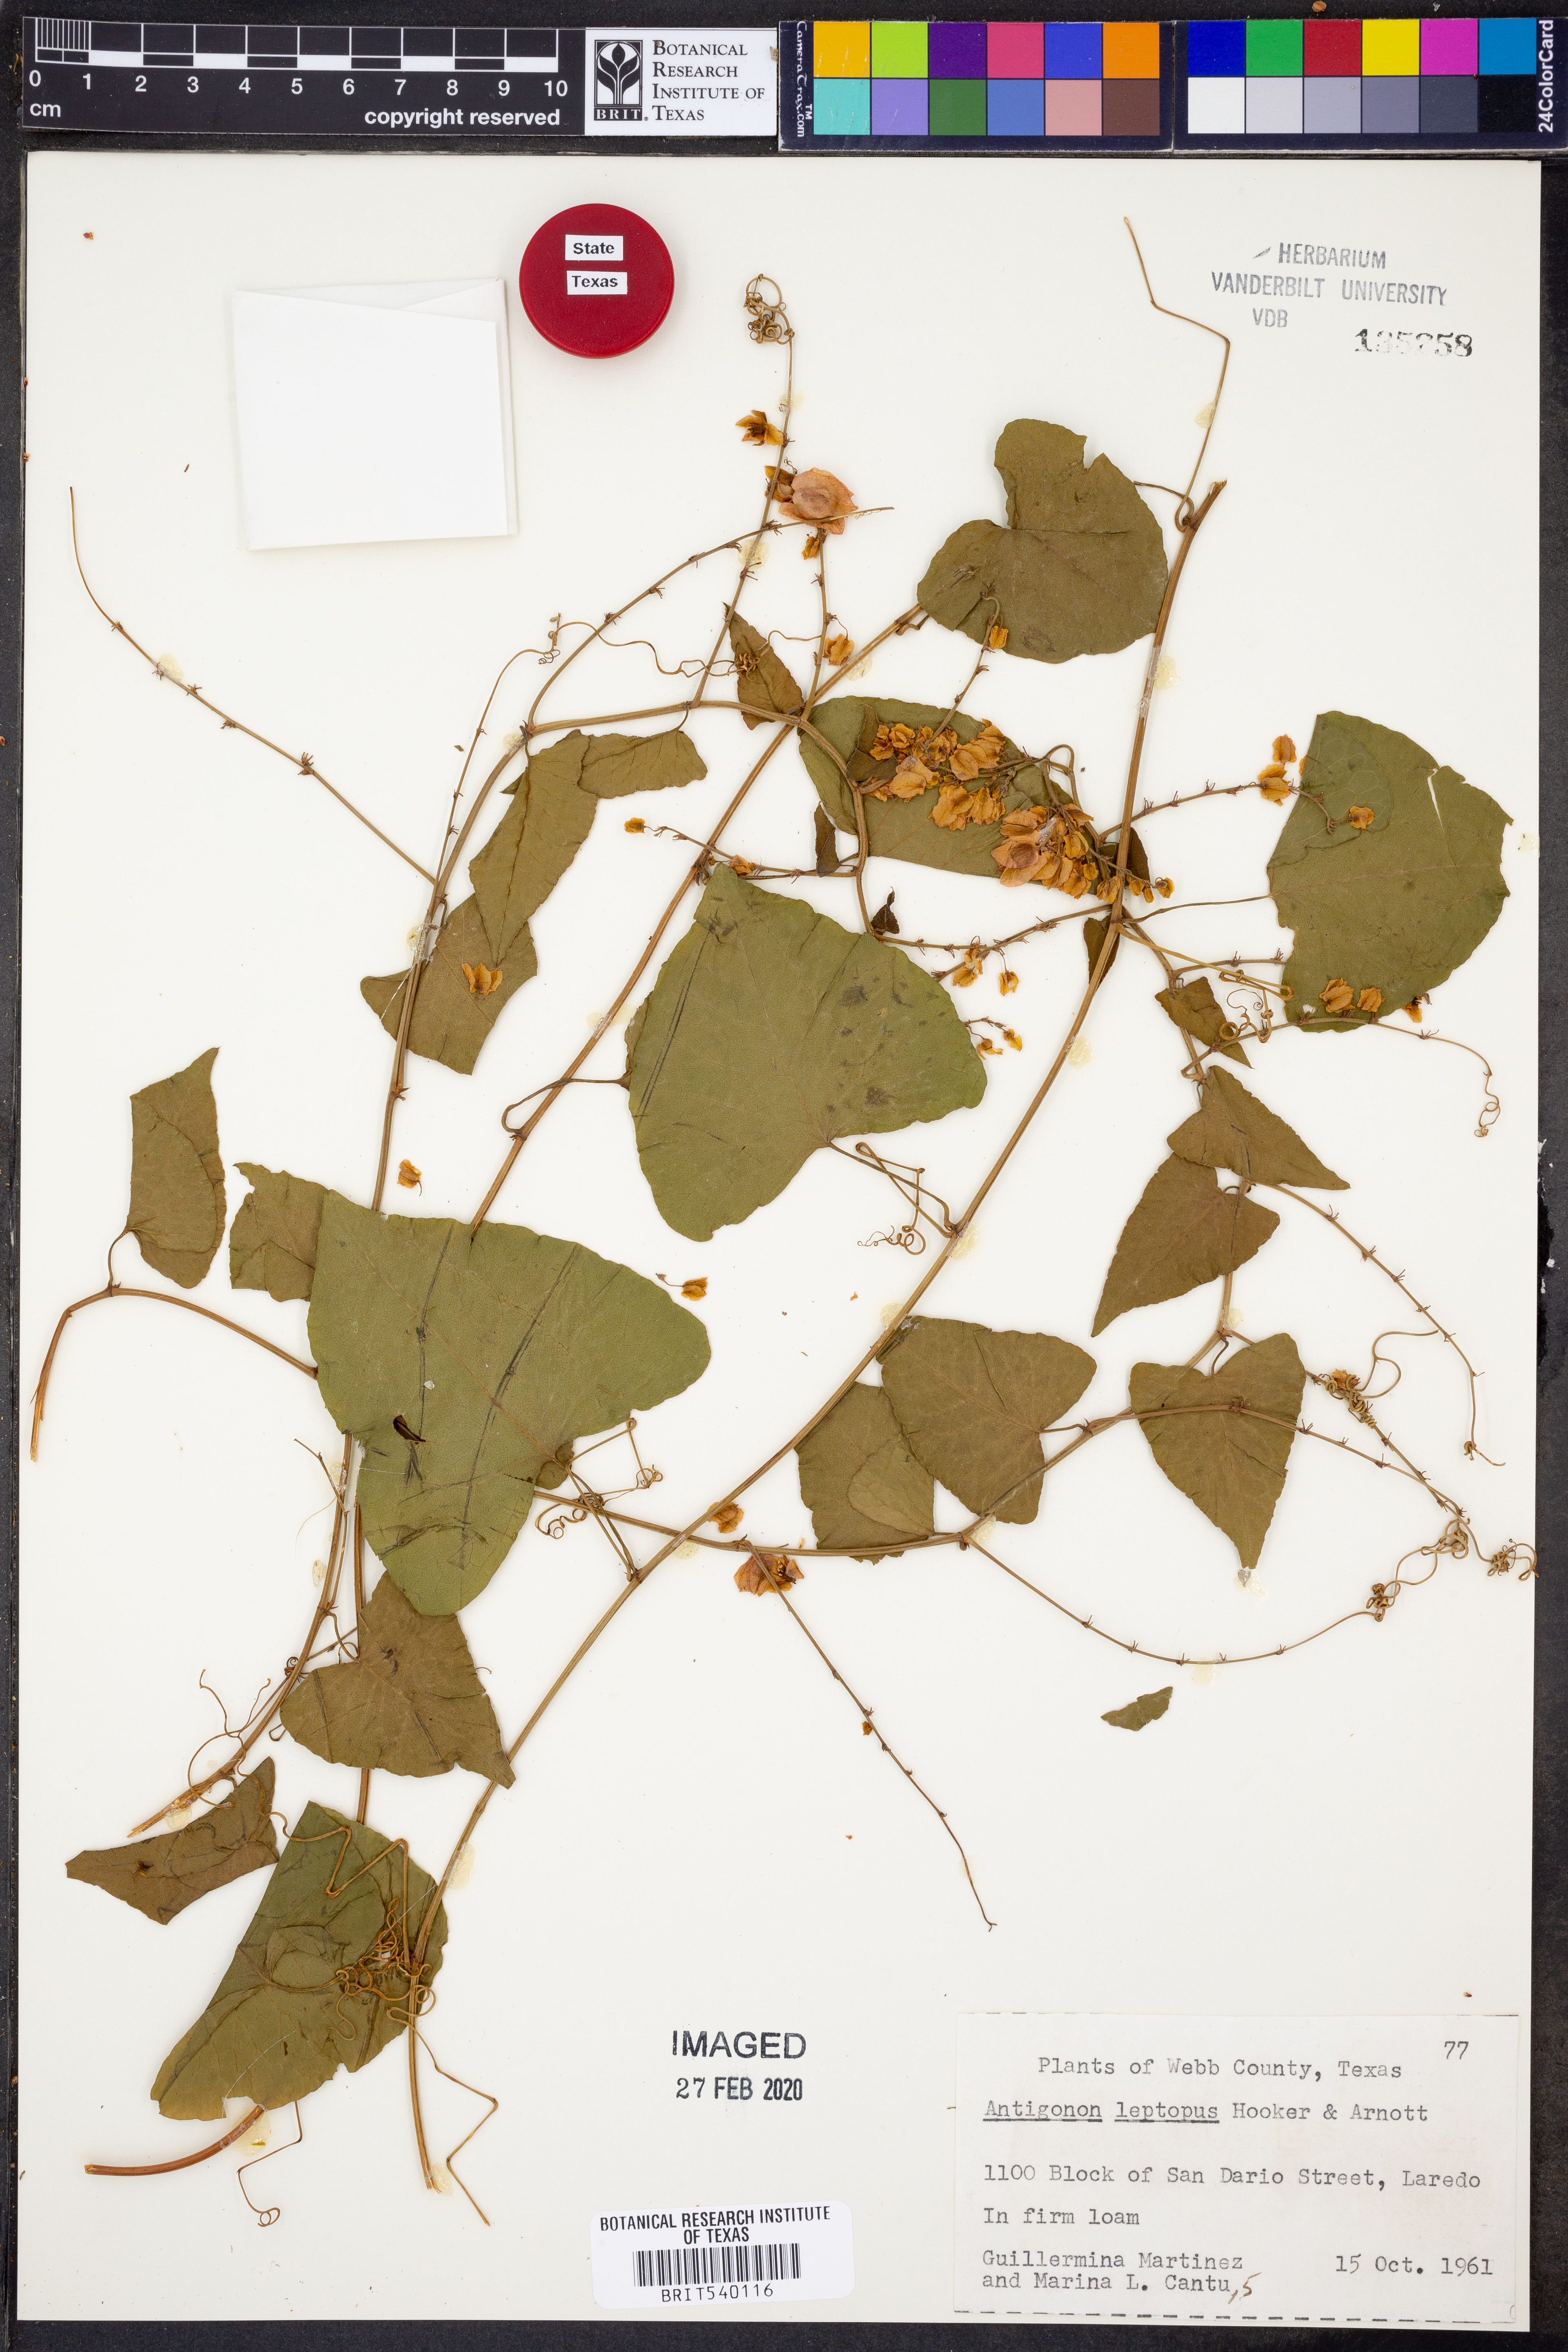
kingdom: Plantae
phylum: Tracheophyta
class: Magnoliopsida
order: Caryophyllales
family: Polygonaceae
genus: Antigonon
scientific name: Antigonon leptopus
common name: Coral vine
